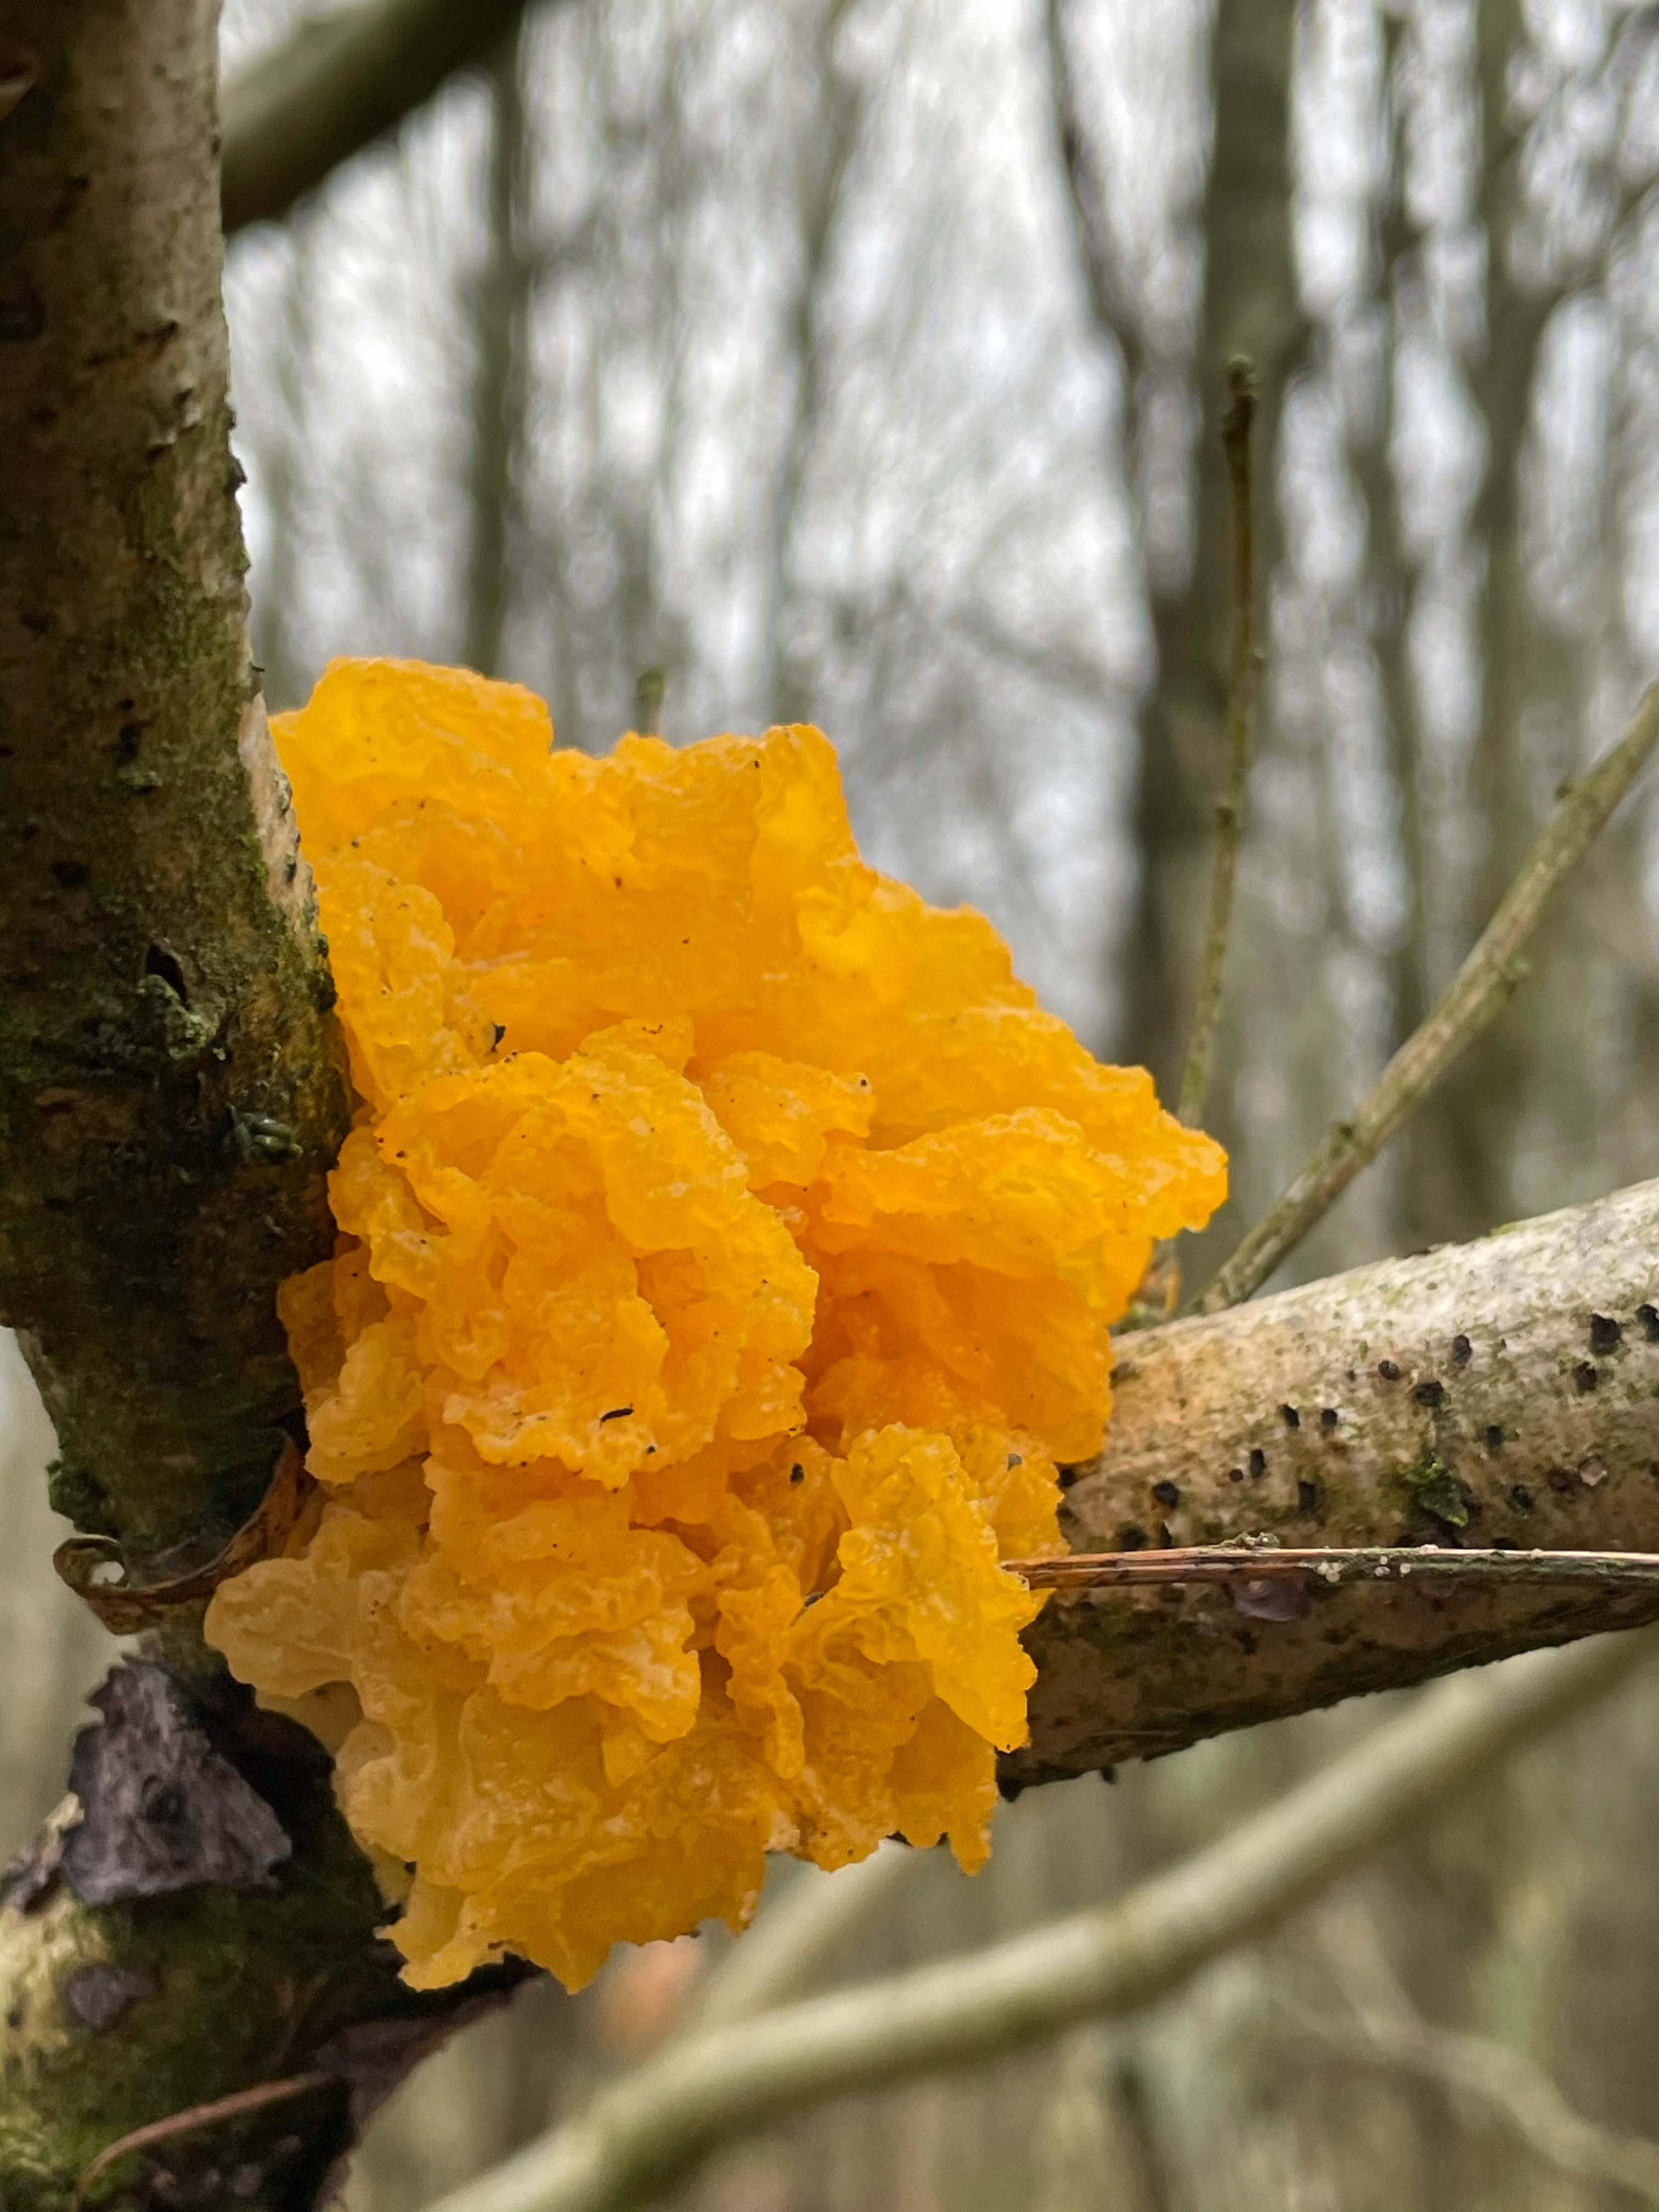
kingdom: Fungi
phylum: Basidiomycota
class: Tremellomycetes
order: Tremellales
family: Tremellaceae
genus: Tremella
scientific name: Tremella mesenterica
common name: gul bævresvamp
